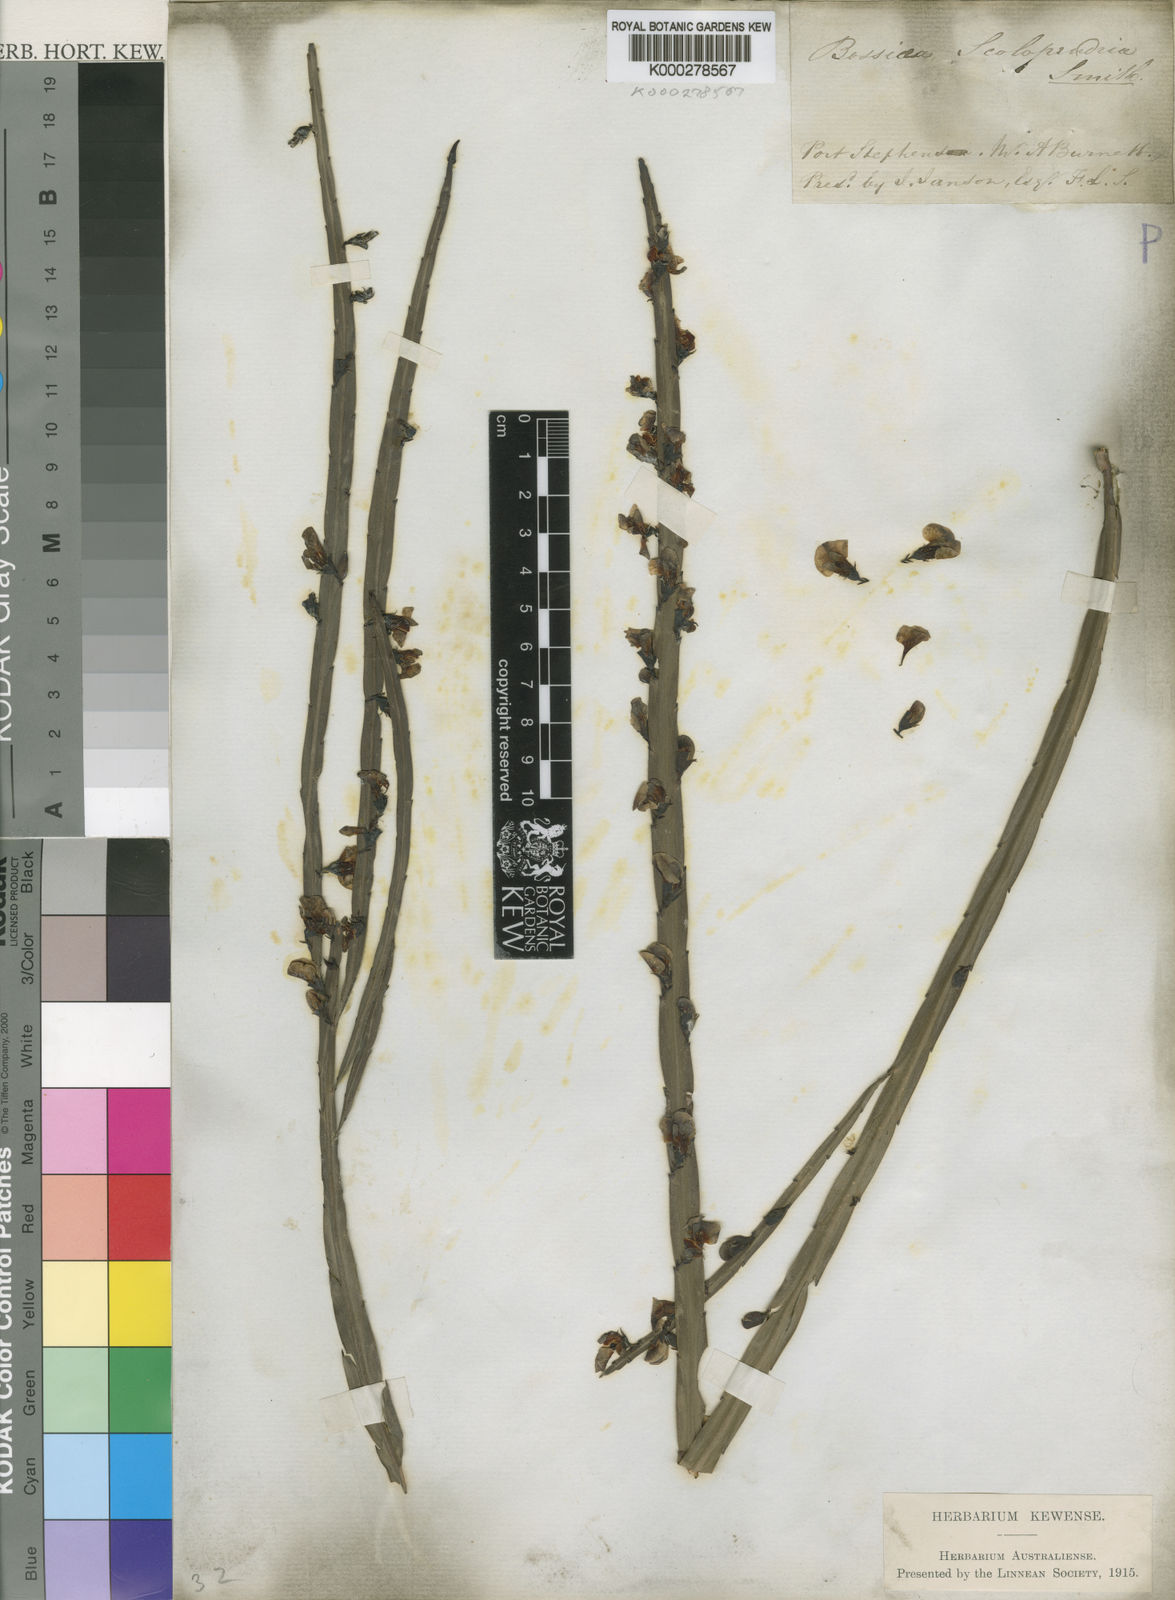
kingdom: Plantae
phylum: Tracheophyta
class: Magnoliopsida
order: Fabales
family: Fabaceae
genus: Bossiaea
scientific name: Bossiaea scolopendria
